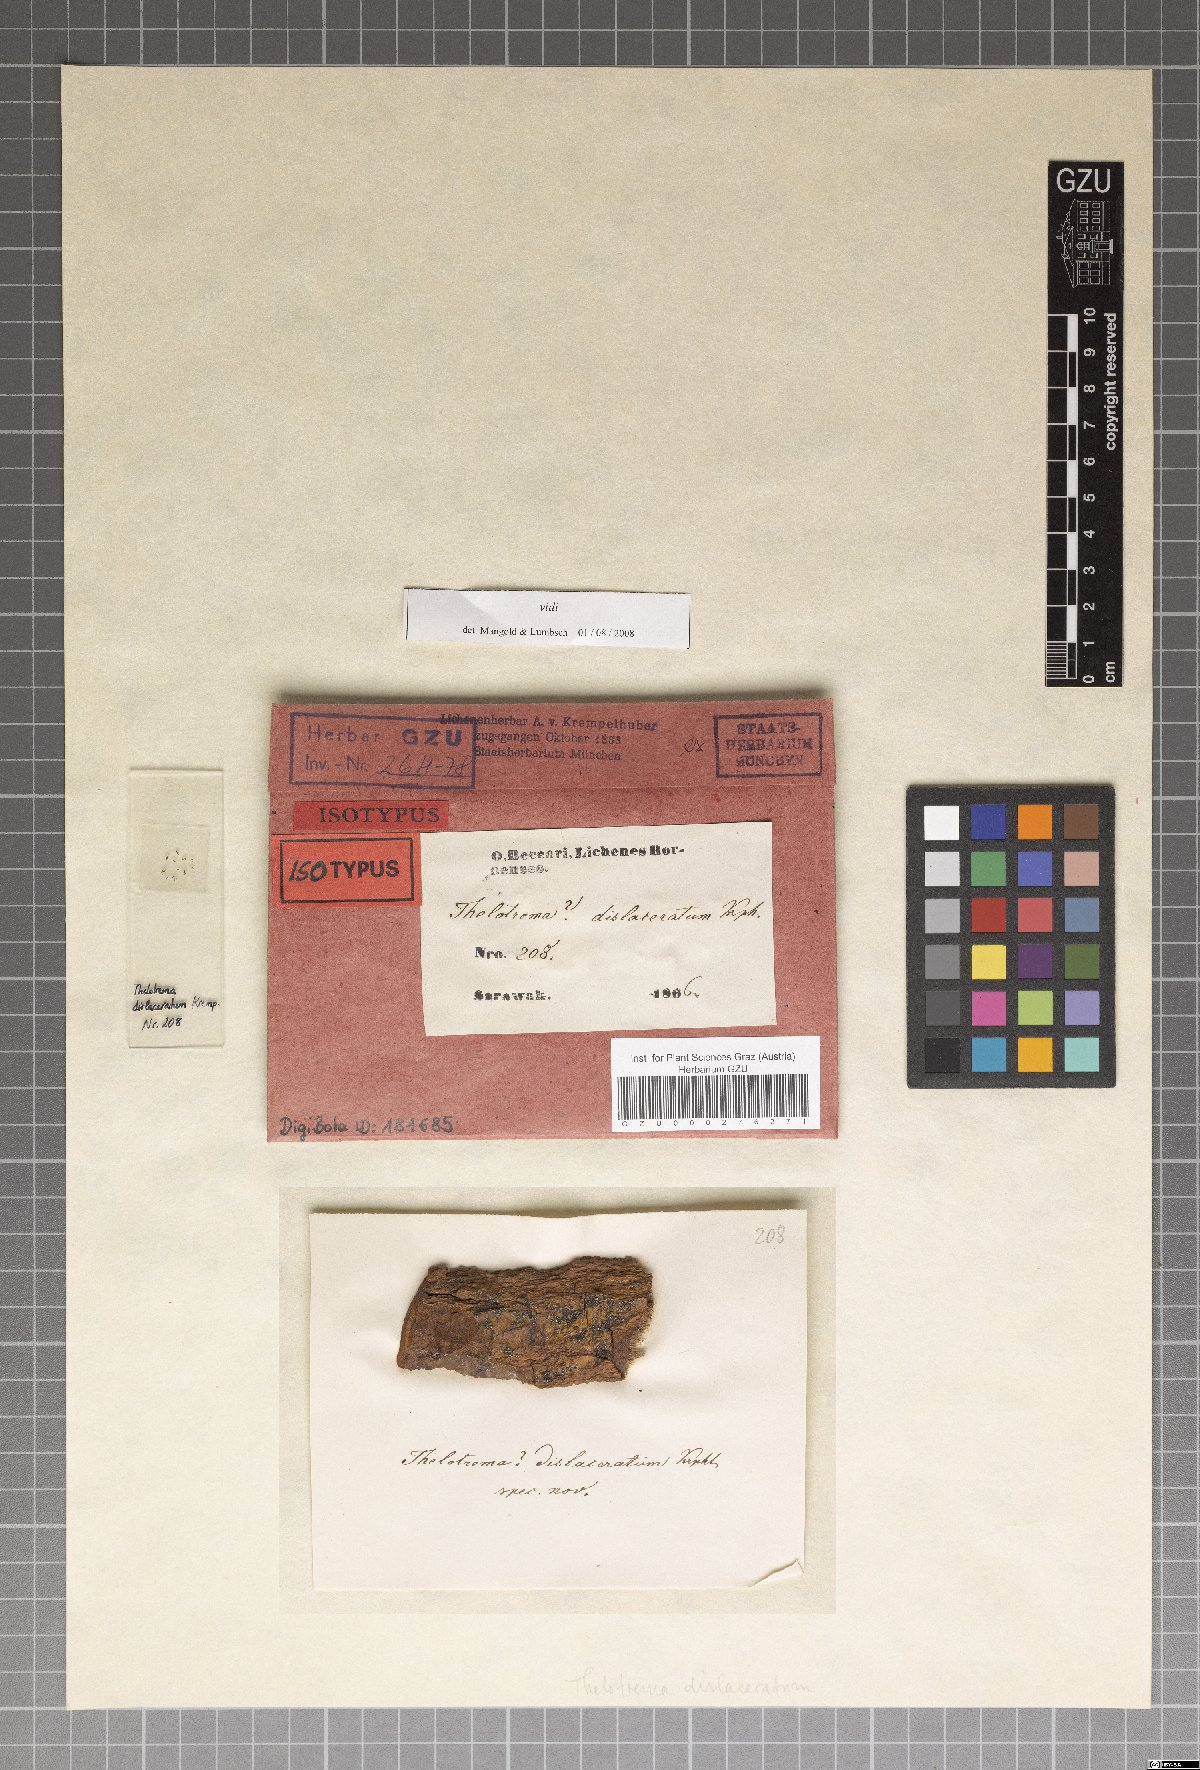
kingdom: Fungi
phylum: Ascomycota
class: Lecanoromycetes
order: Ostropales
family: Graphidaceae
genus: Thelotrema
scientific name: Thelotrema dislaceratum
